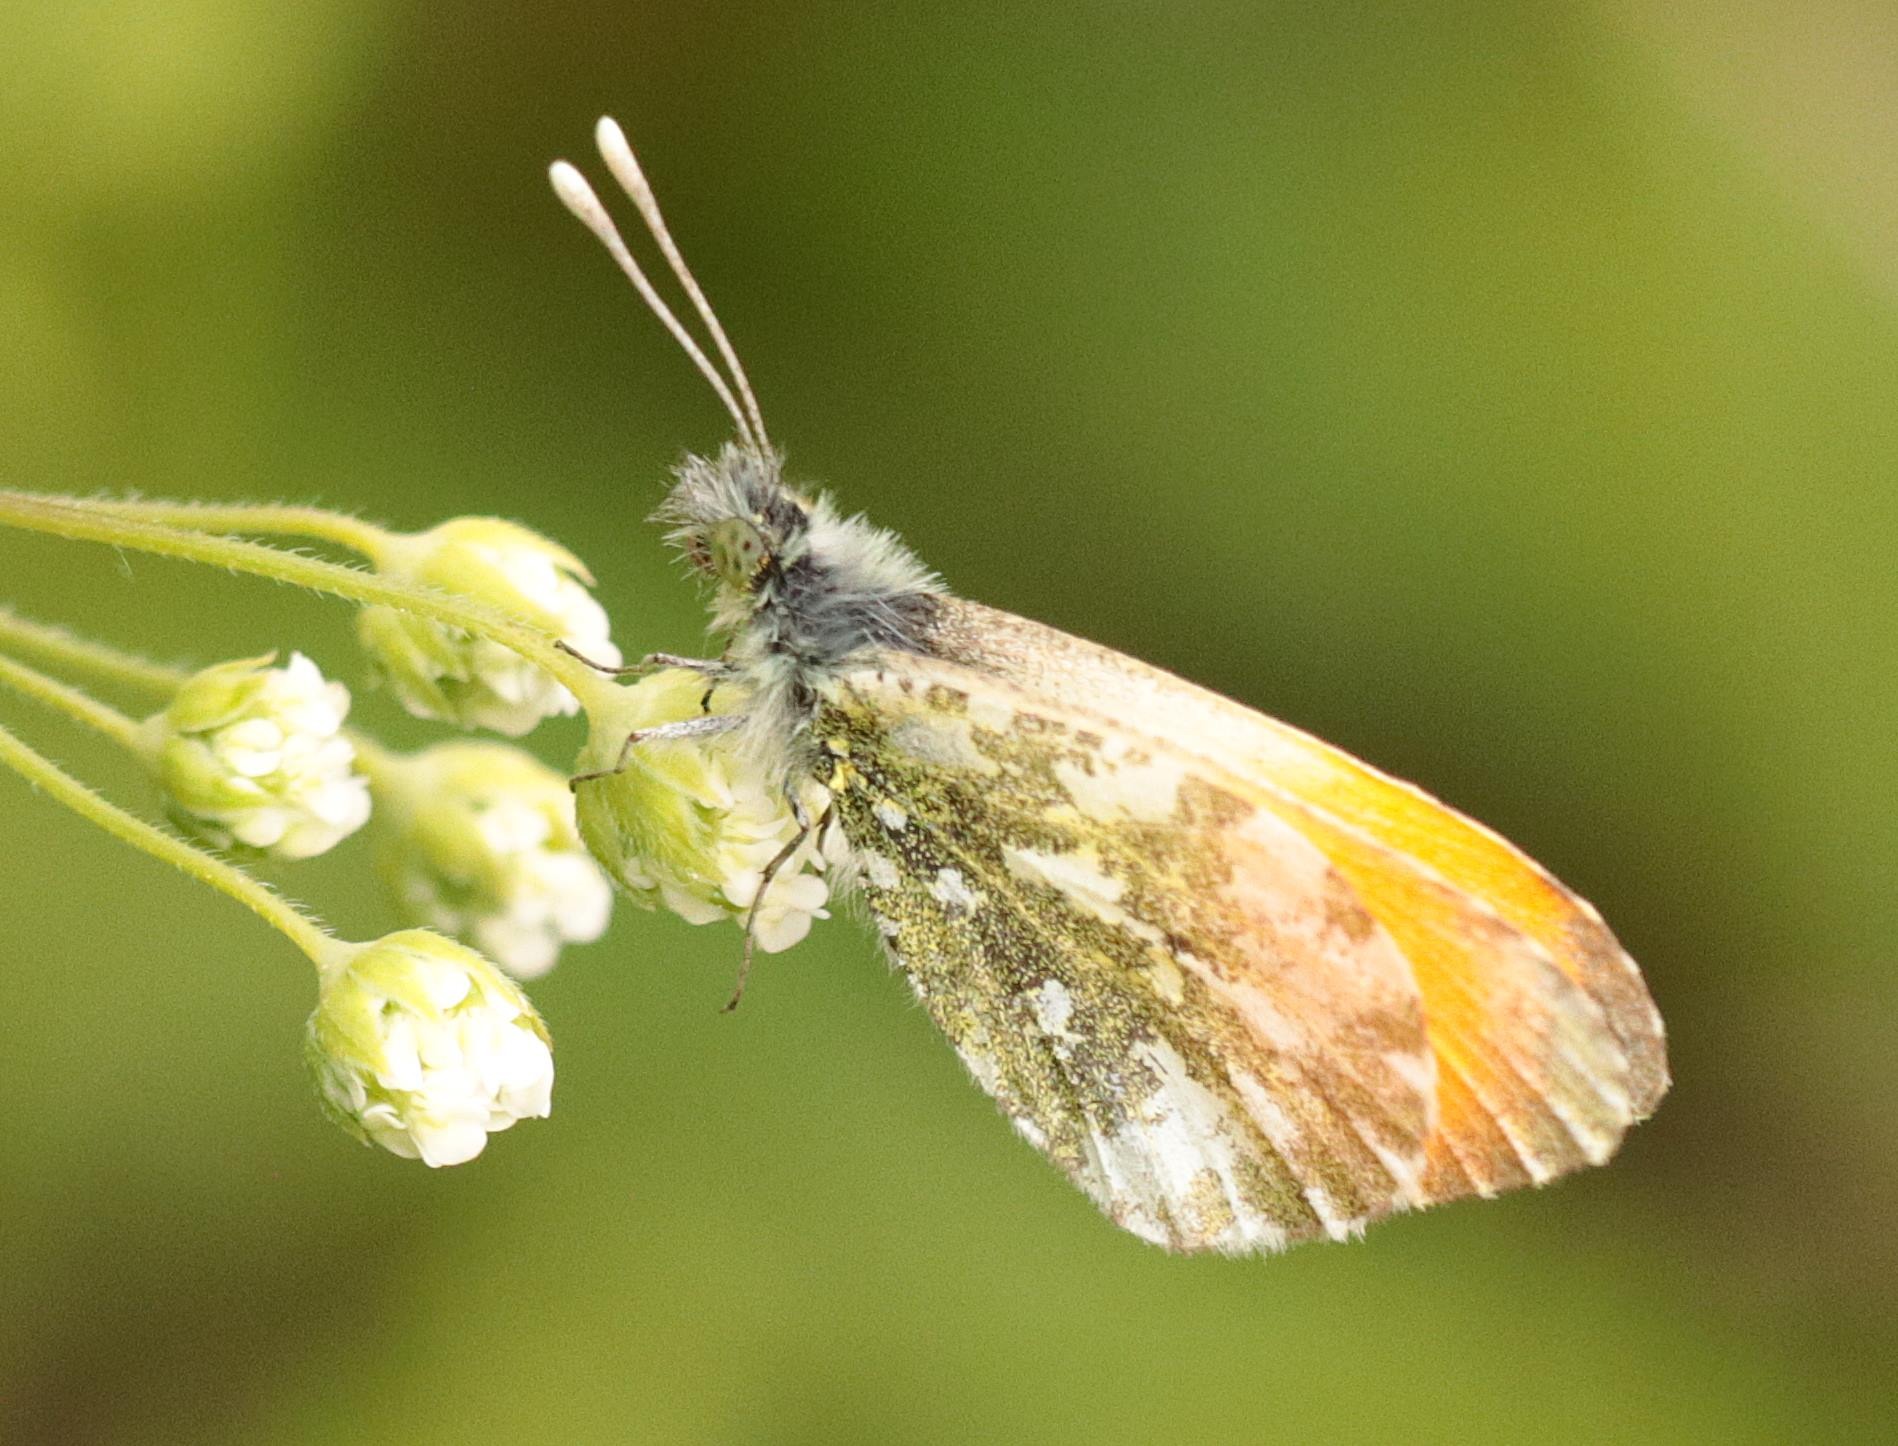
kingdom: Animalia
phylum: Arthropoda
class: Insecta
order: Lepidoptera
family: Pieridae
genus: Anthocharis
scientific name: Anthocharis cardamines
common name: Aurora
